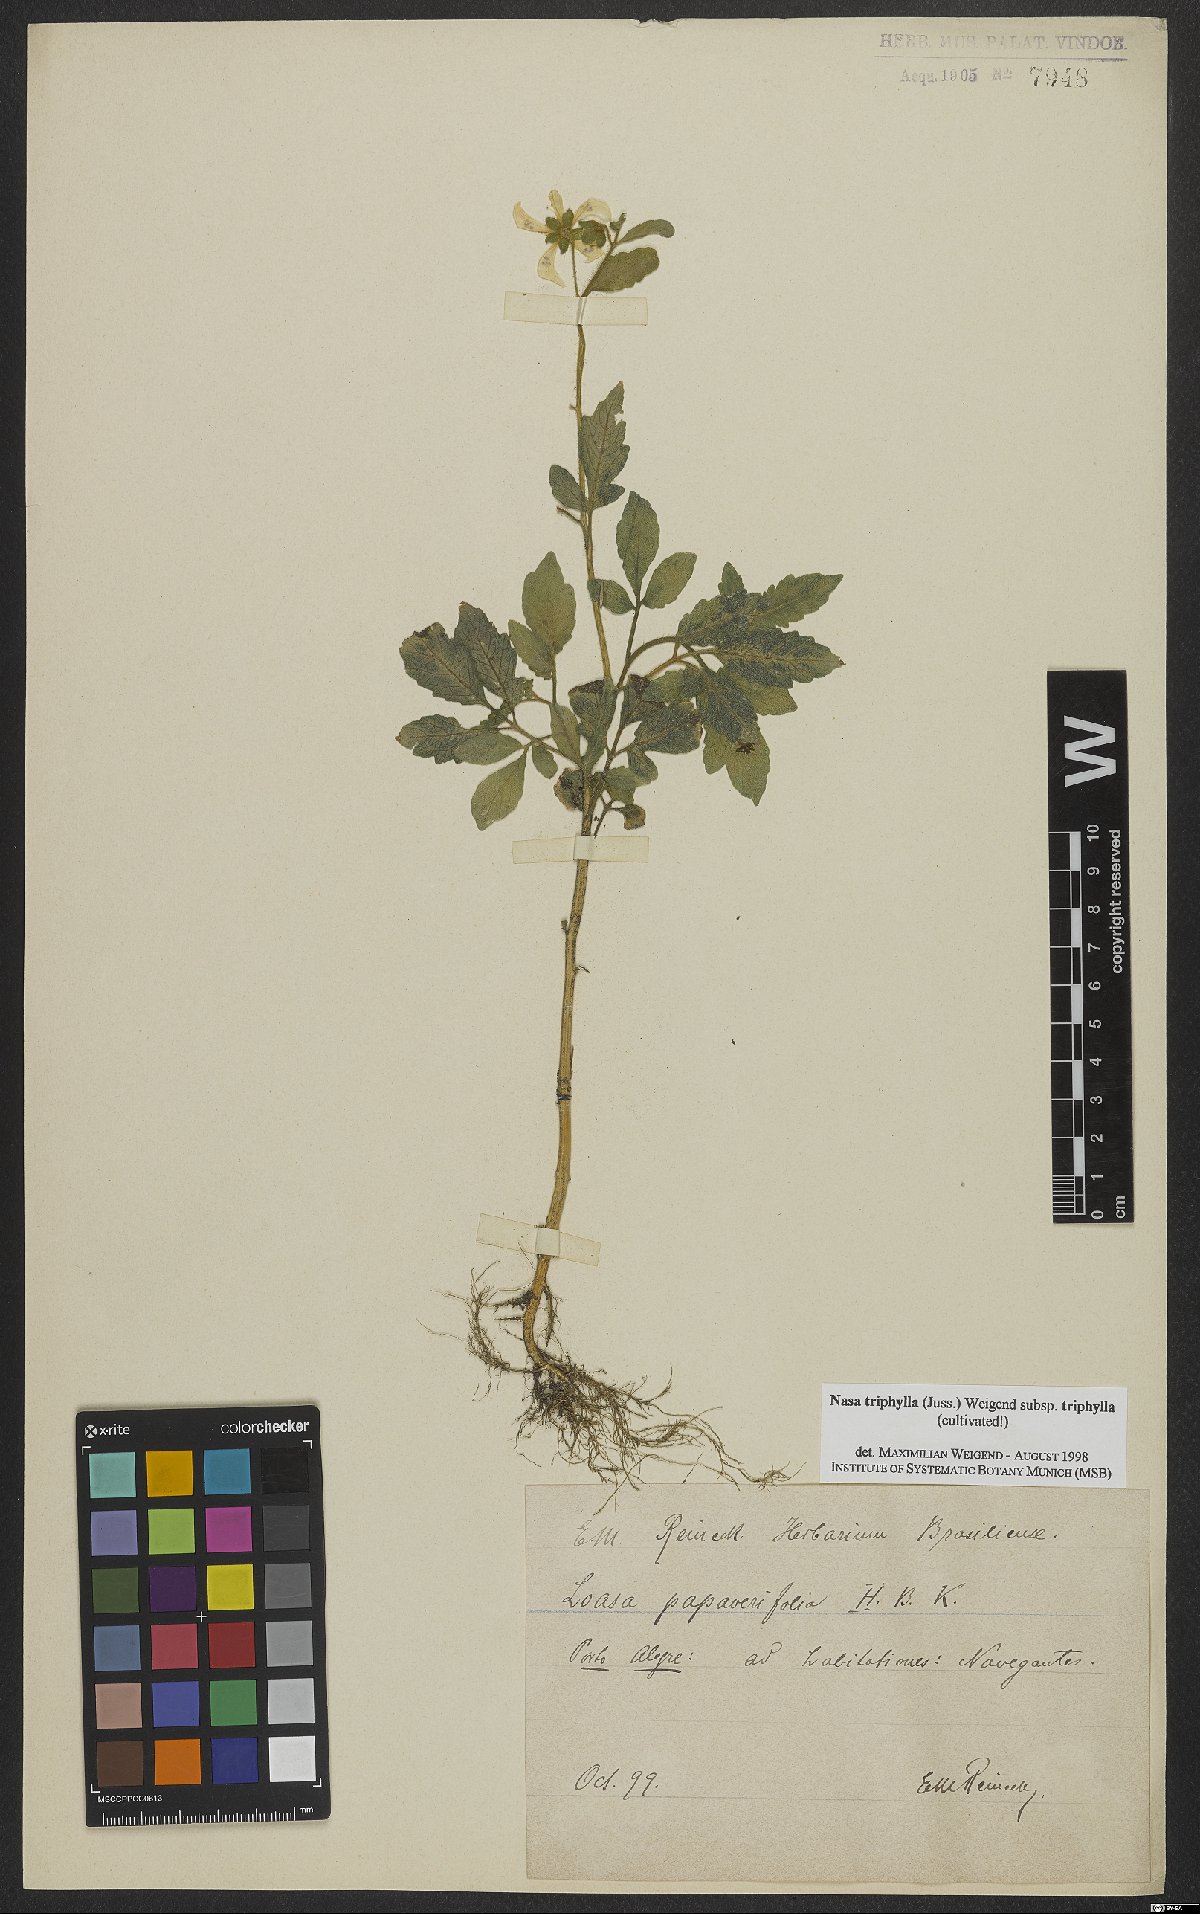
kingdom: Plantae
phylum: Tracheophyta
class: Magnoliopsida
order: Cornales
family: Loasaceae
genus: Nasa
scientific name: Nasa triphylla
